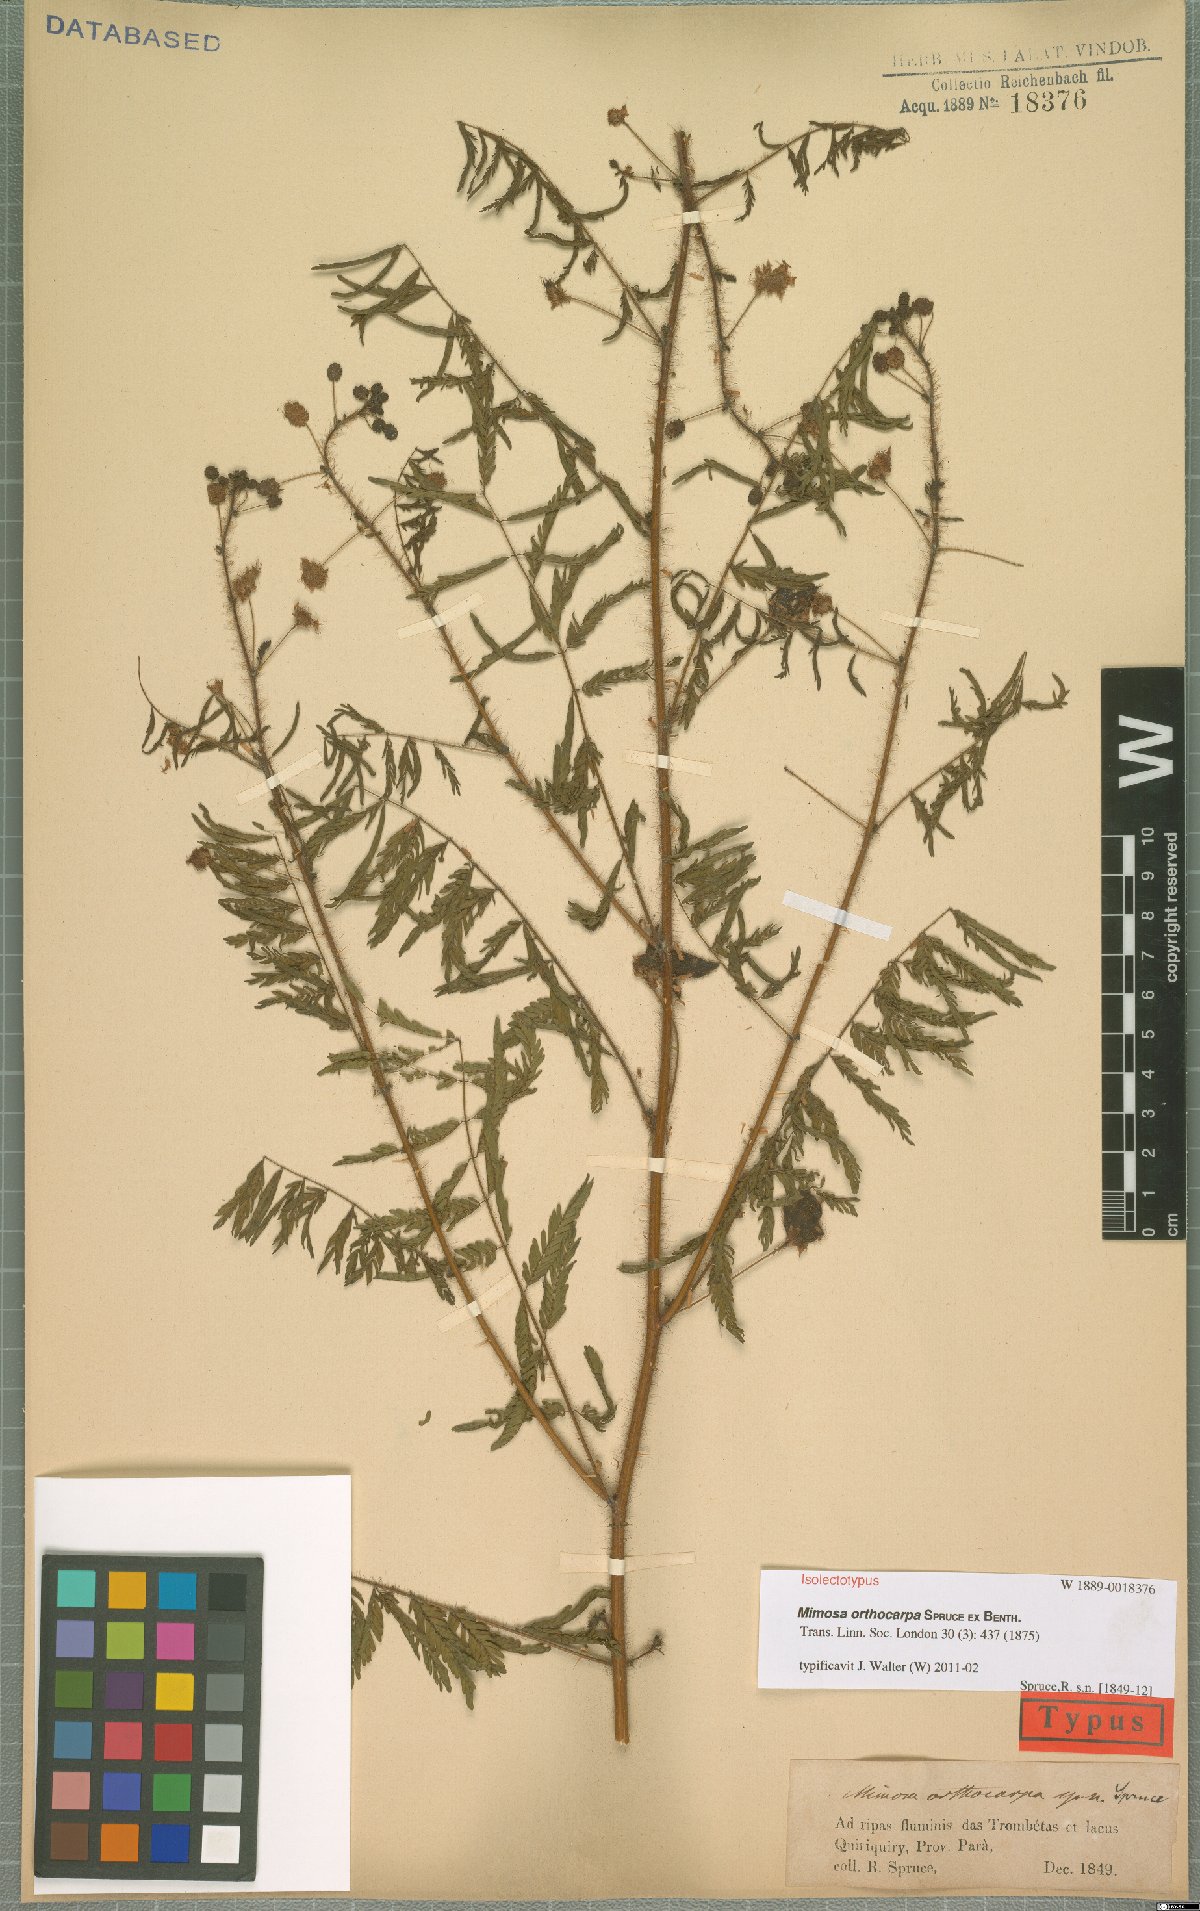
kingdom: Plantae
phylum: Tracheophyta
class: Magnoliopsida
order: Fabales
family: Fabaceae
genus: Mimosa
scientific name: Mimosa orthocarpa
